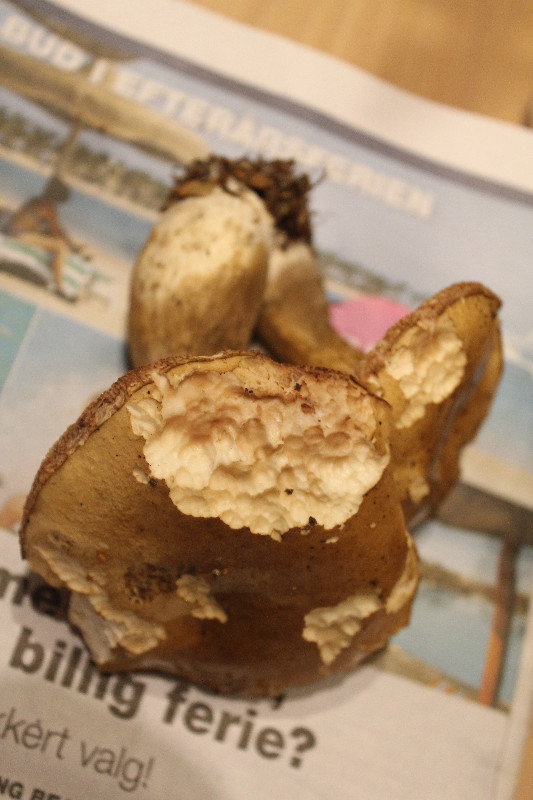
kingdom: Fungi
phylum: Basidiomycota
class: Agaricomycetes
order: Boletales
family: Boletaceae
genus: Tylopilus
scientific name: Tylopilus felleus
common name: galderørhat
